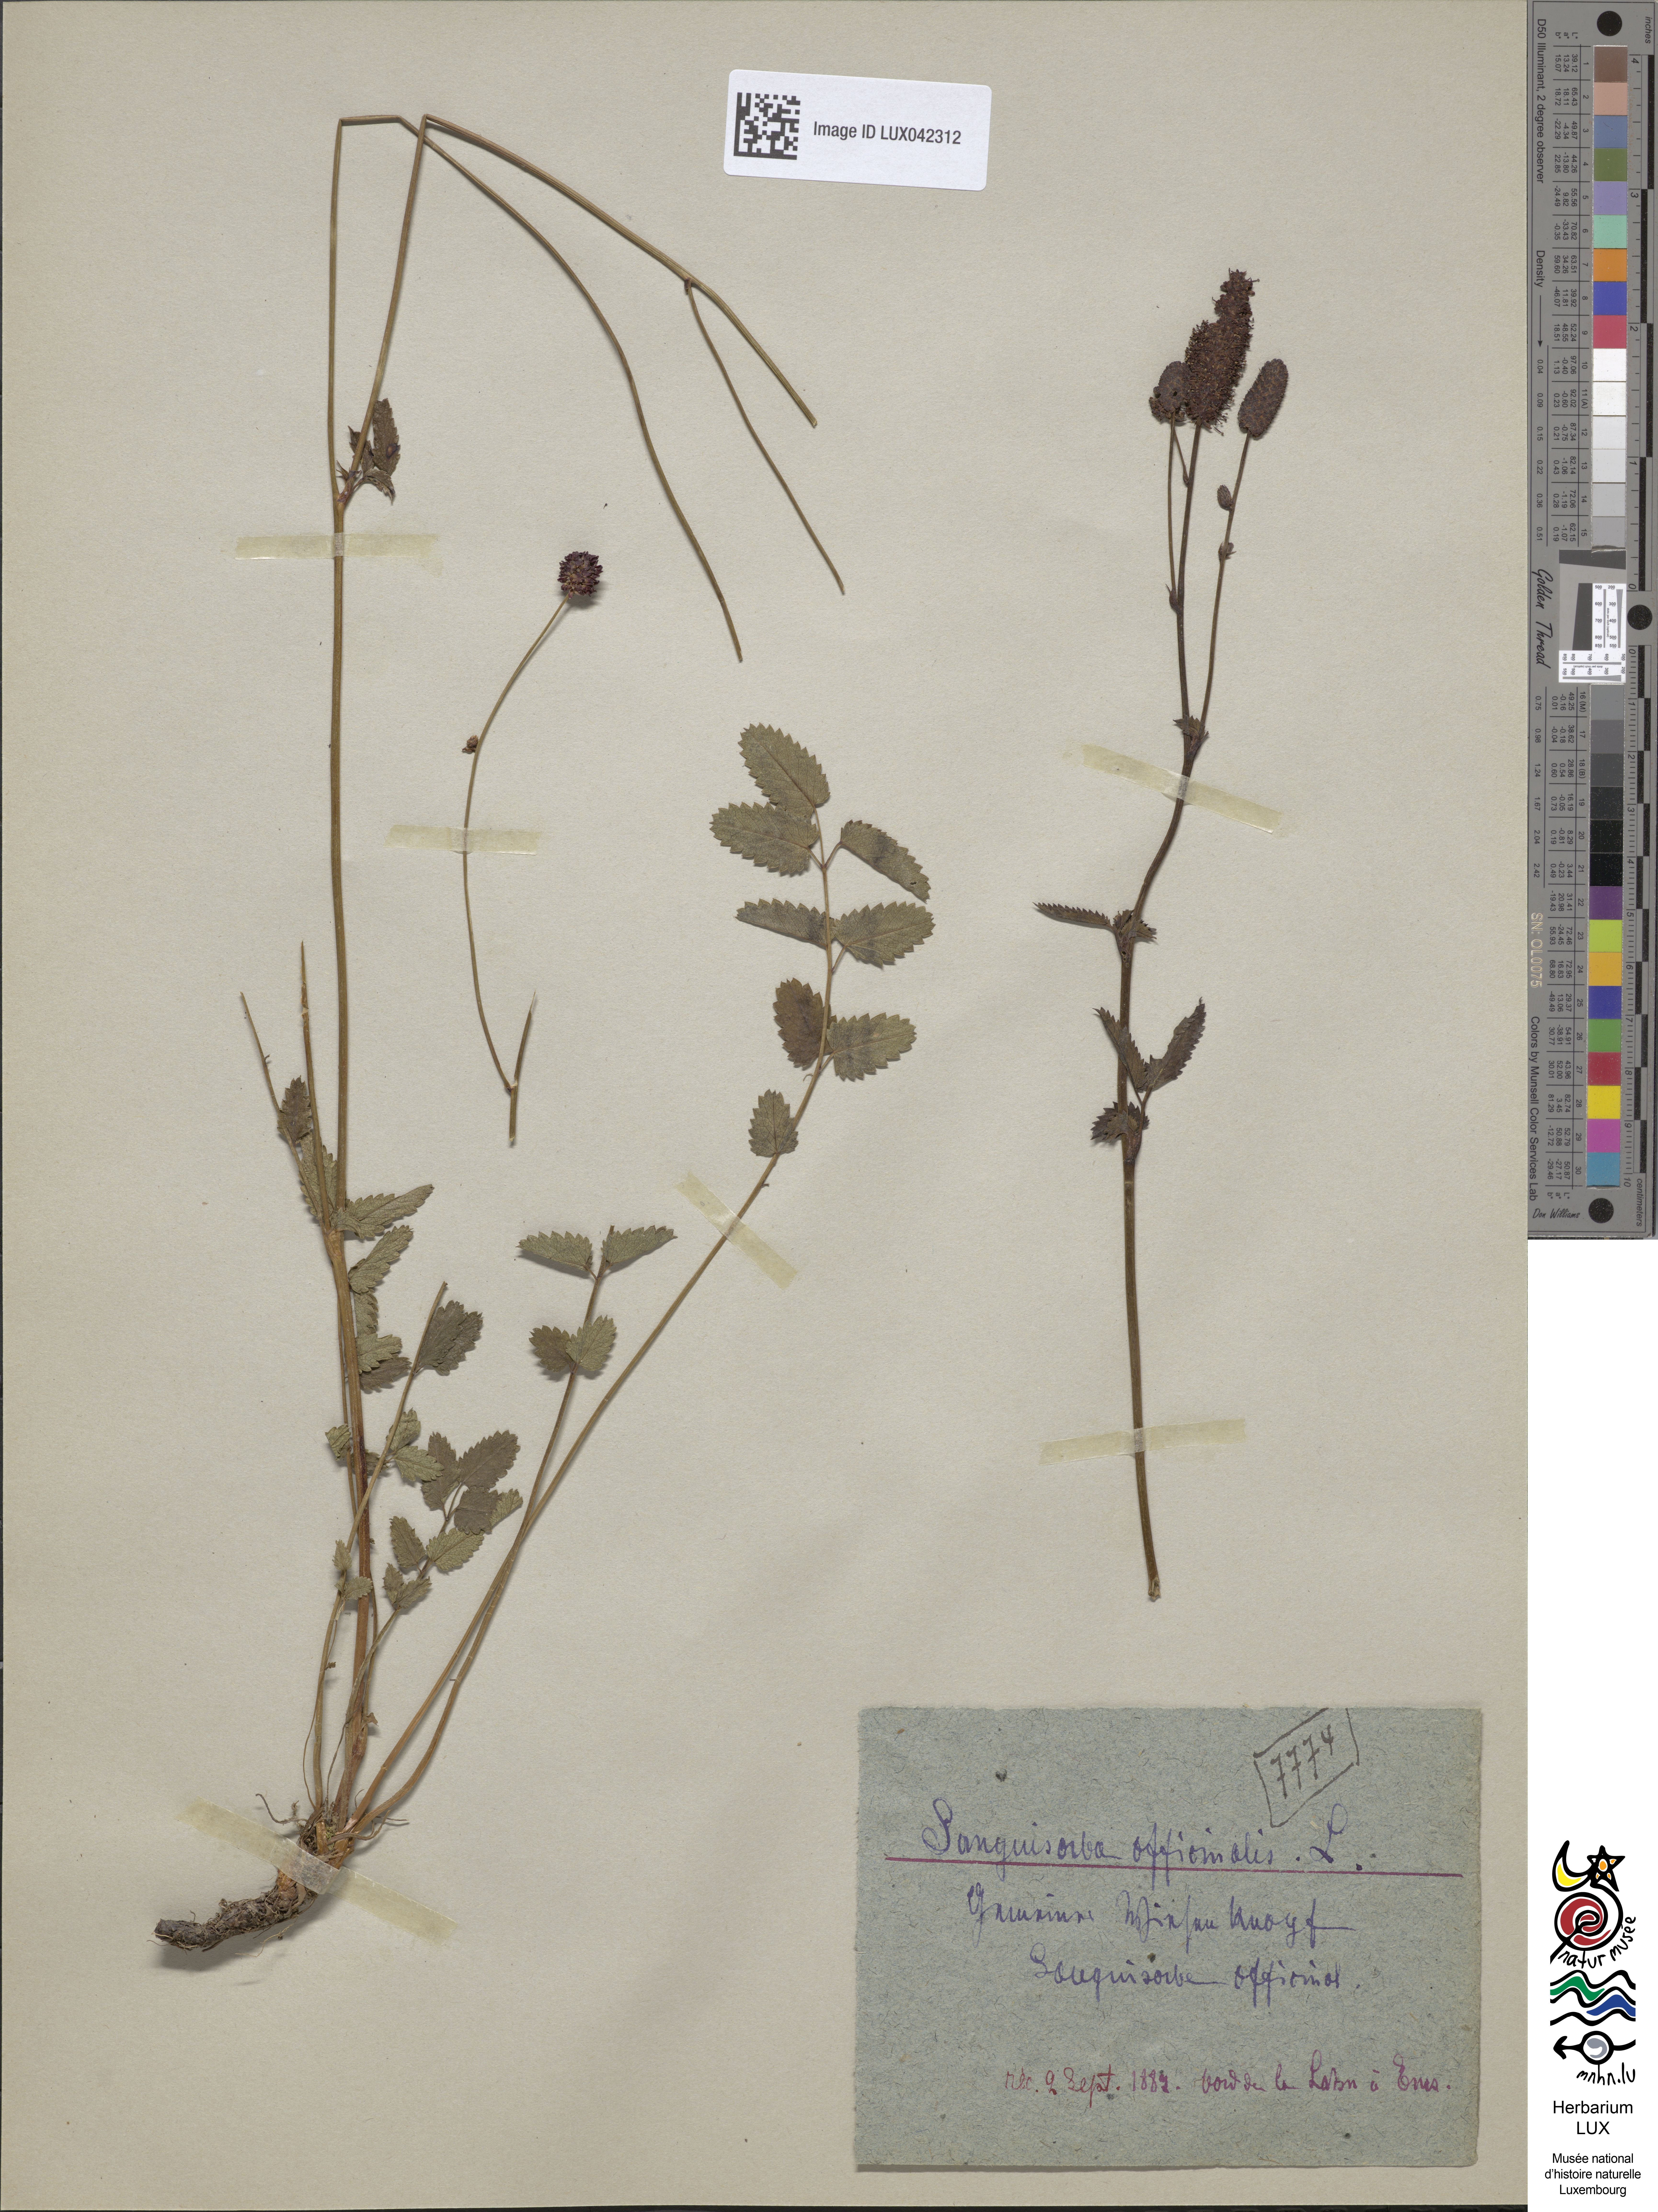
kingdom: Plantae
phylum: Tracheophyta
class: Magnoliopsida
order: Rosales
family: Rosaceae
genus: Sanguisorba
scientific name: Sanguisorba officinalis
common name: Great burnet
